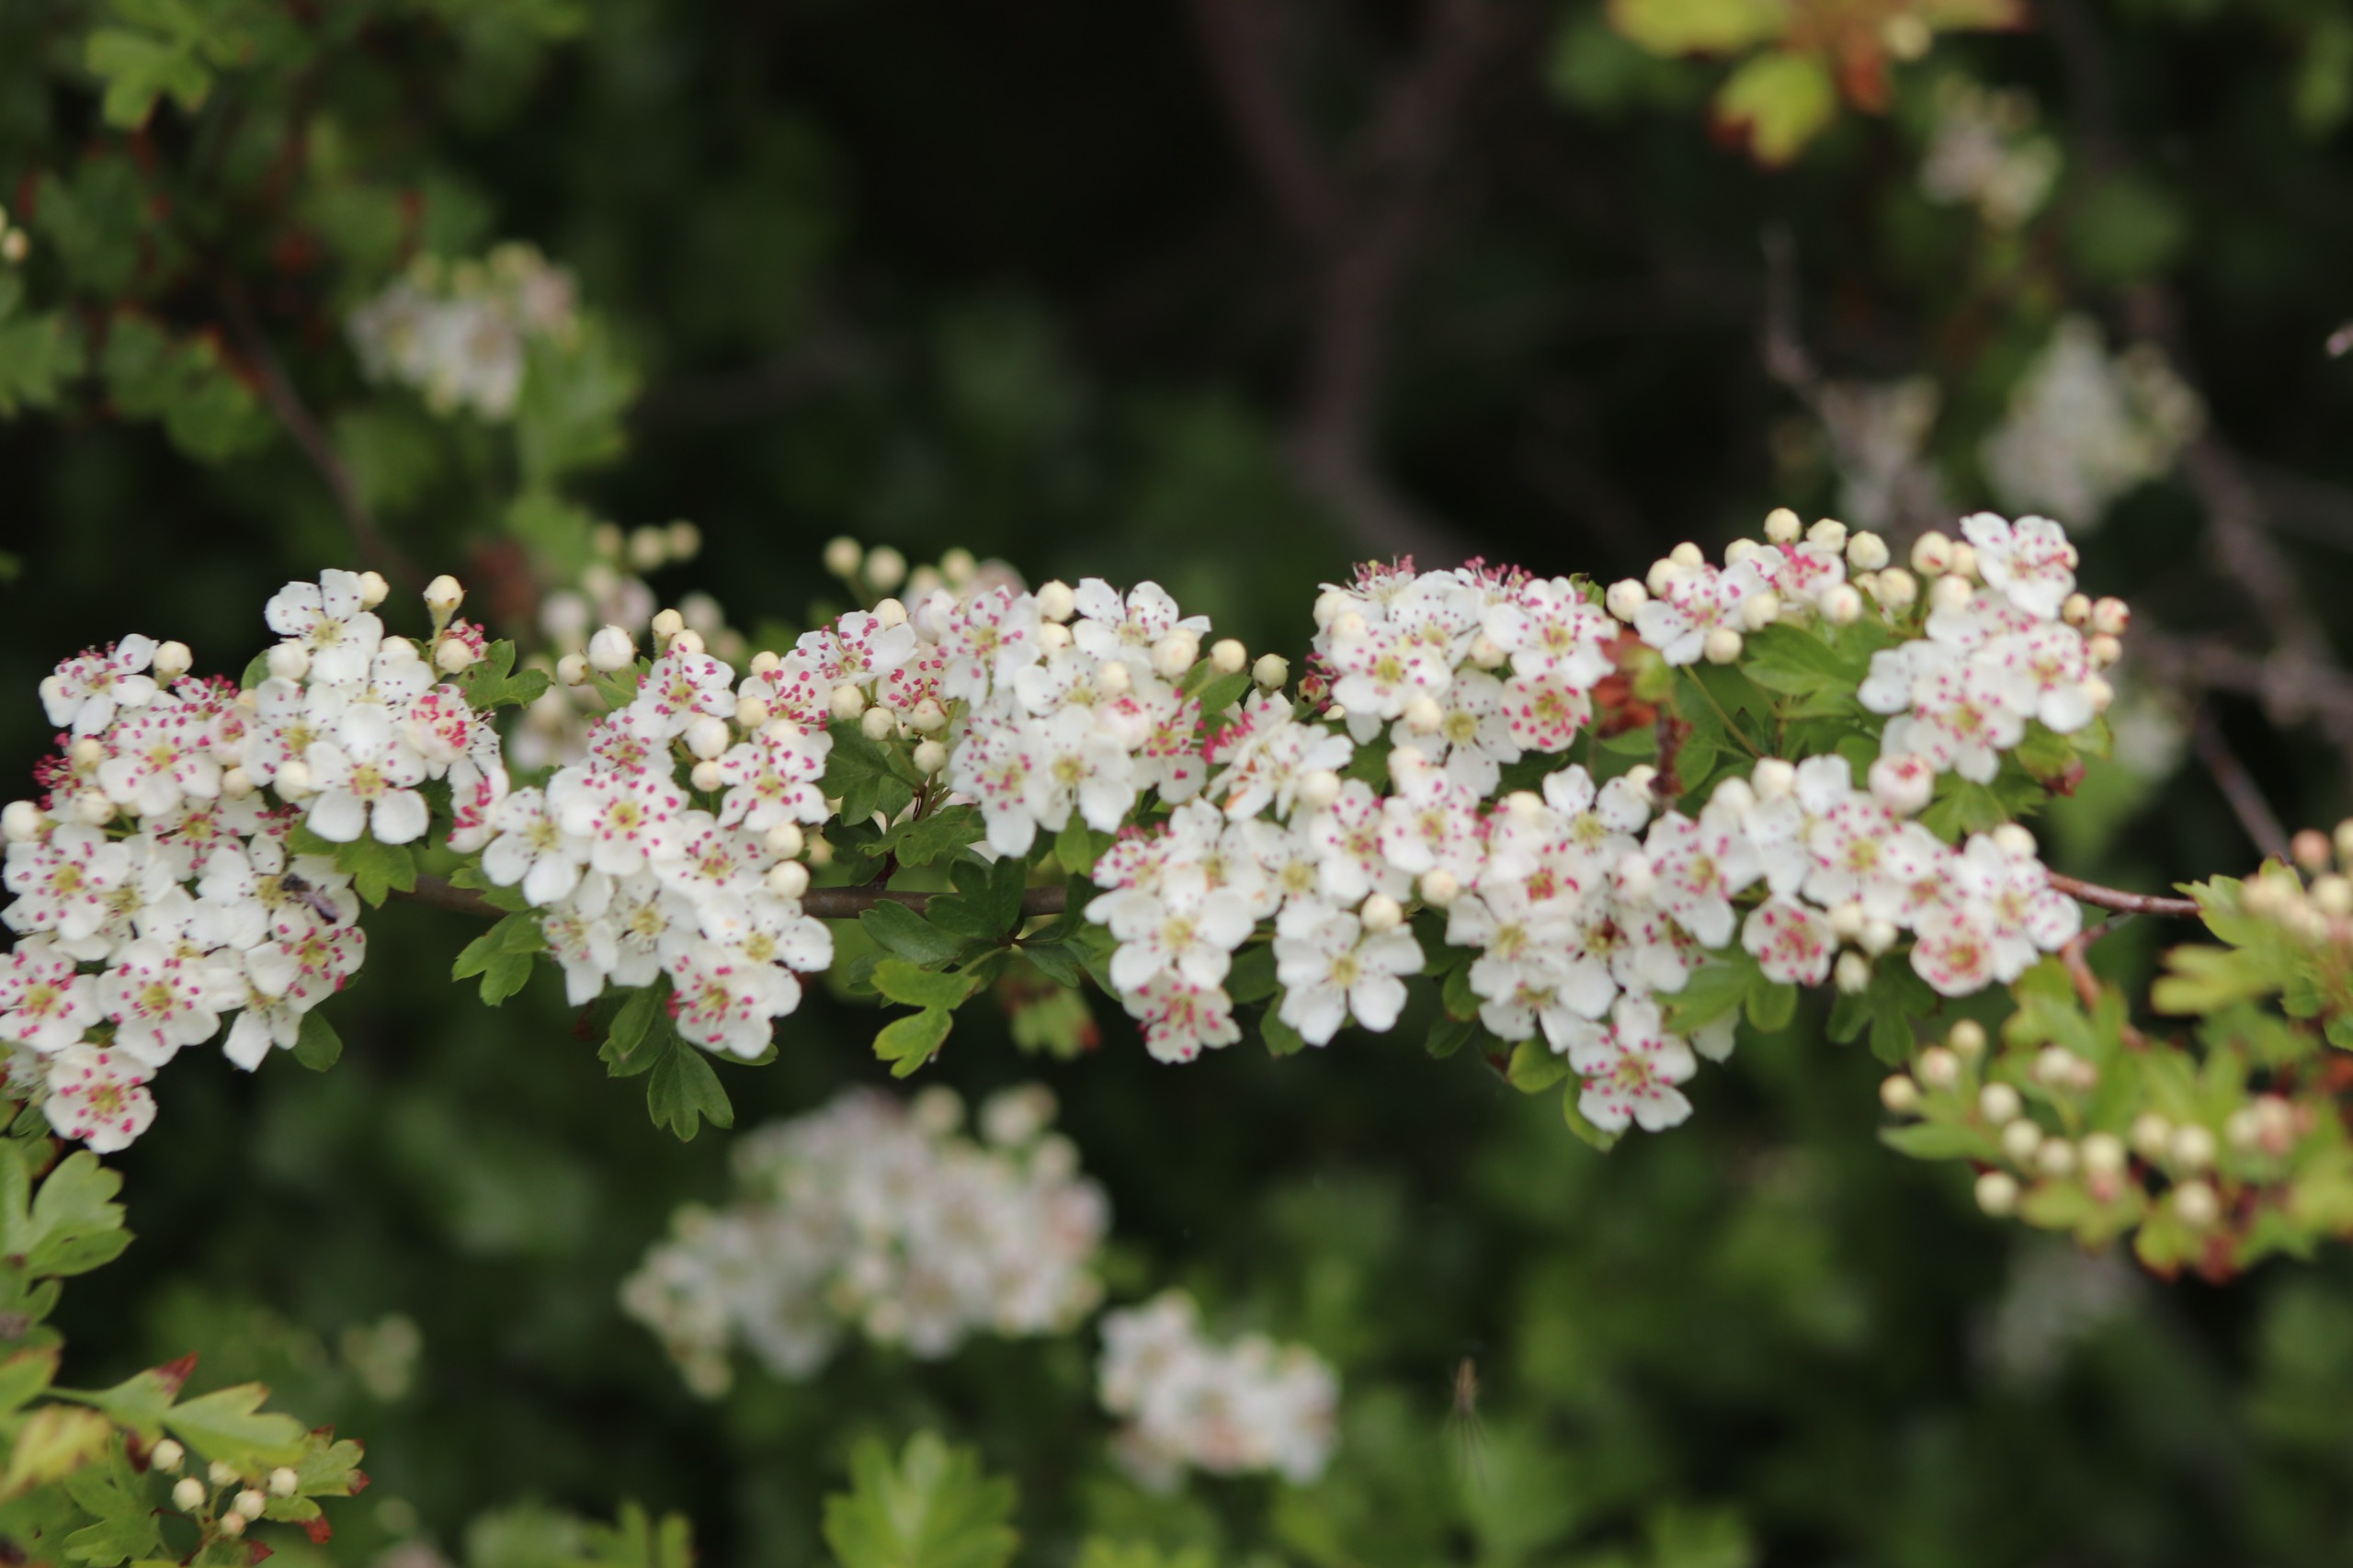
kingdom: Plantae
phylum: Tracheophyta
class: Magnoliopsida
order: Rosales
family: Rosaceae
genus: Crataegus
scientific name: Crataegus monogyna
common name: Engriflet hvidtjørn
